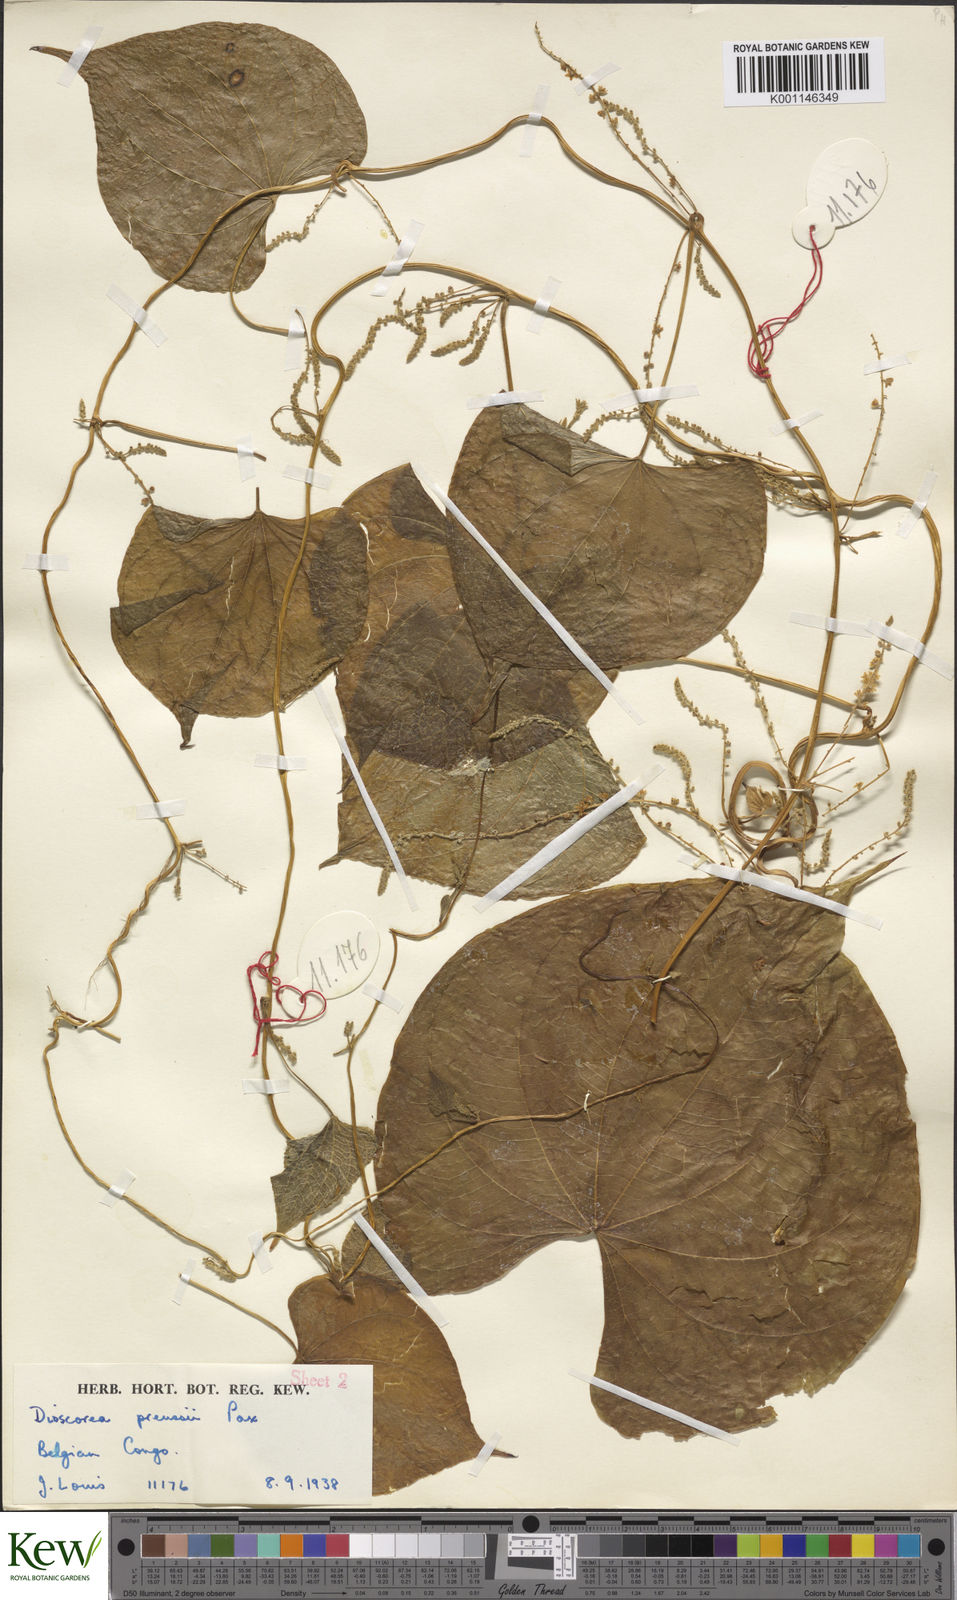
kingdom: Plantae
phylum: Tracheophyta
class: Liliopsida
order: Dioscoreales
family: Dioscoreaceae
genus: Dioscorea
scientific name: Dioscorea preussii
